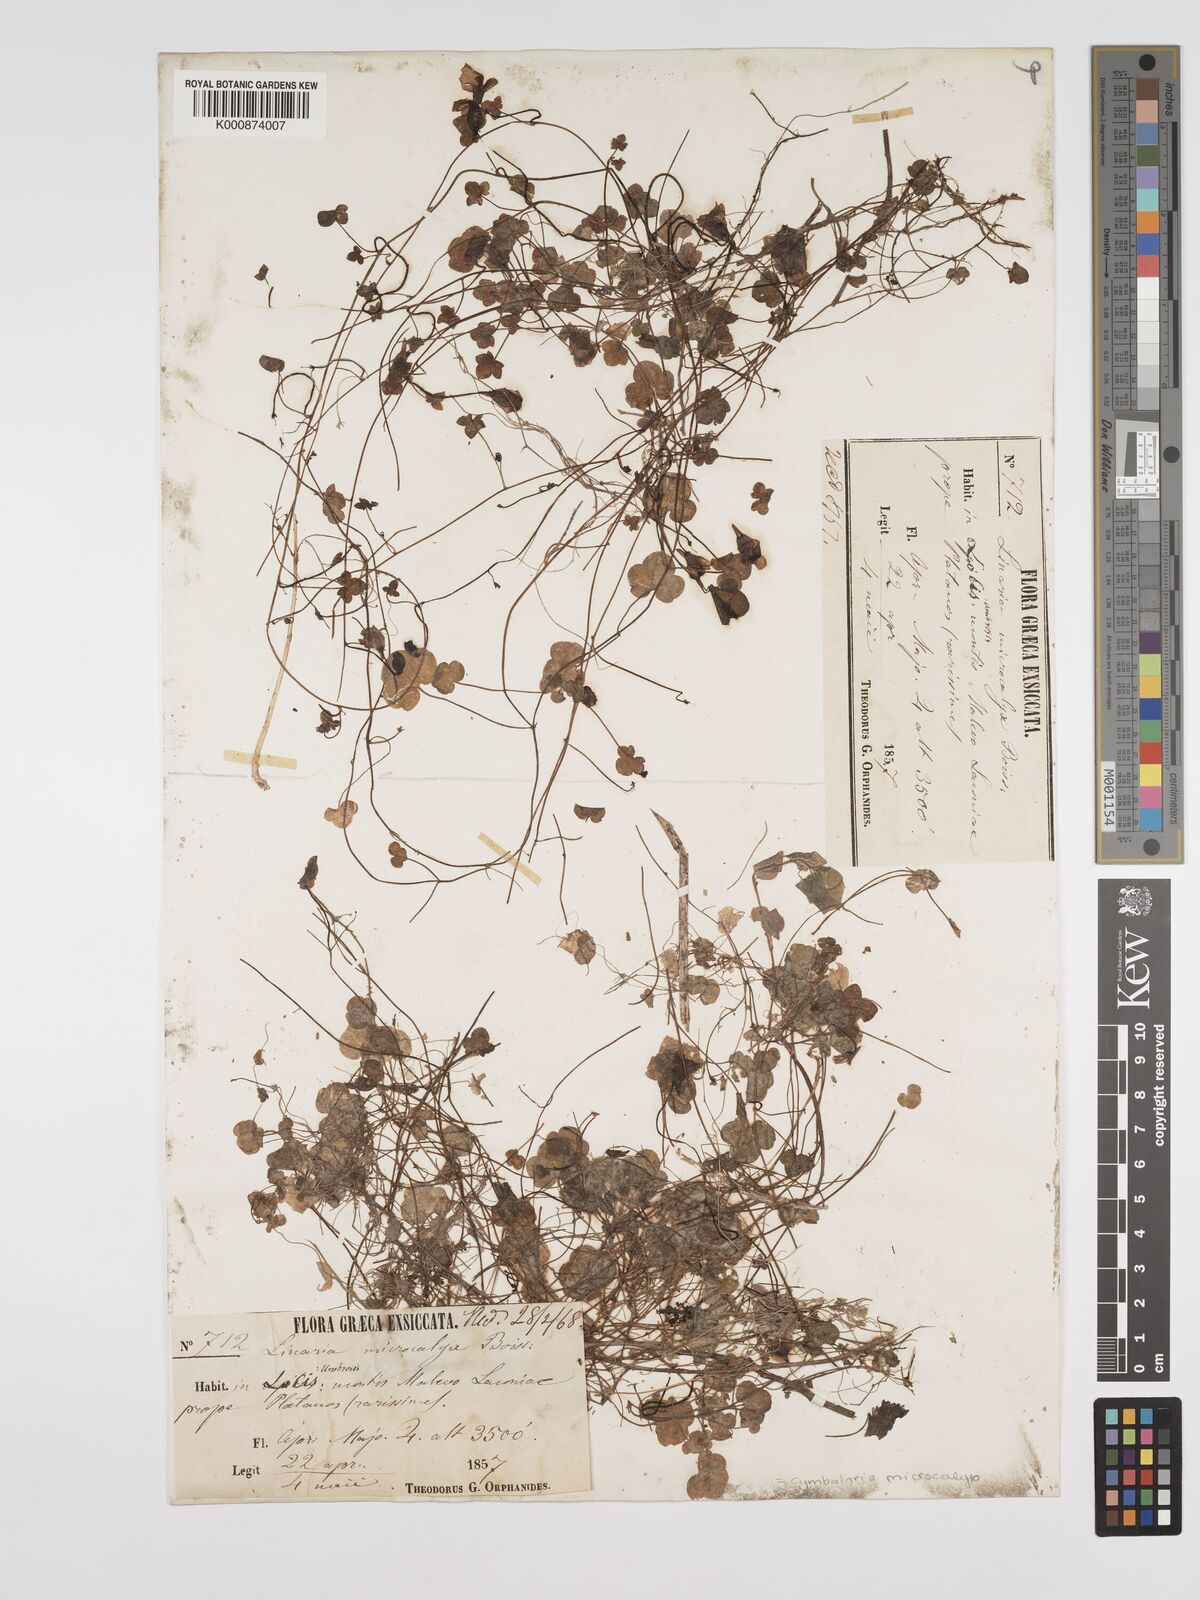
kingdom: Plantae
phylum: Tracheophyta
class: Magnoliopsida
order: Lamiales
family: Plantaginaceae
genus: Cymbalaria
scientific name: Cymbalaria microcalyx
